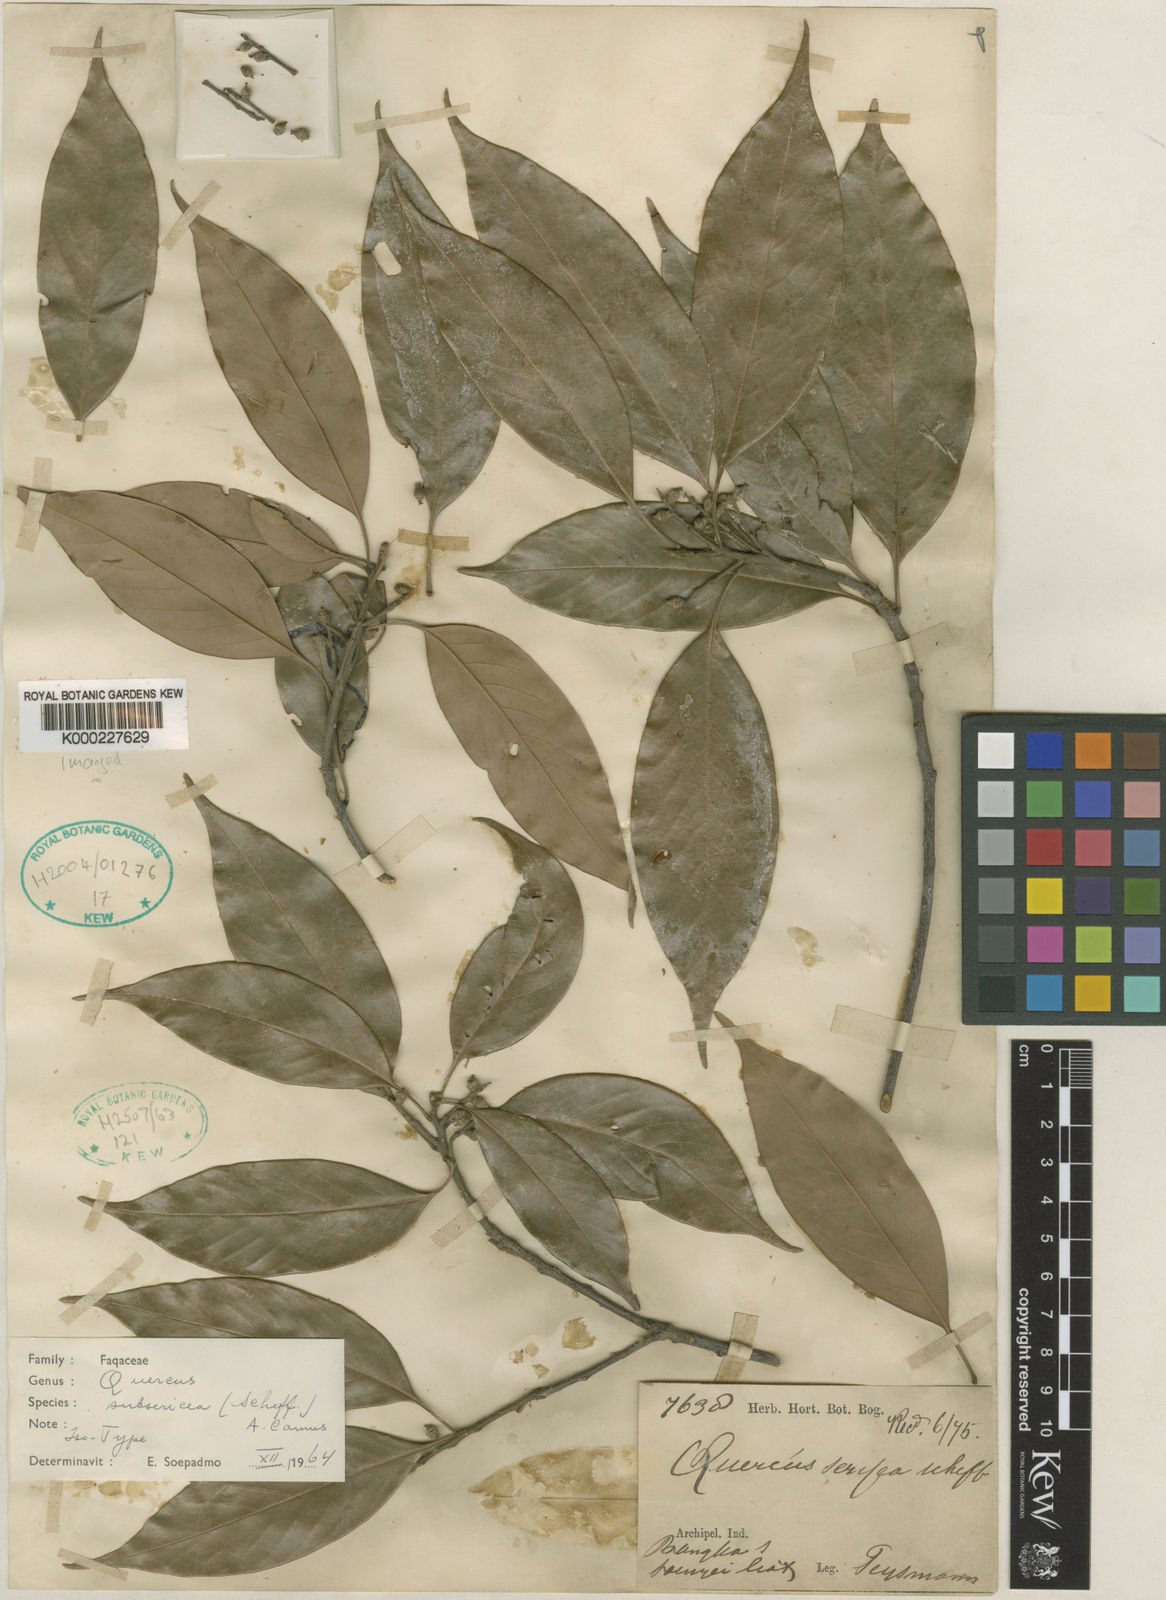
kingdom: Plantae
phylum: Tracheophyta
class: Magnoliopsida
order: Fagales
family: Fagaceae
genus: Quercus
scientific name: Quercus subsericea
